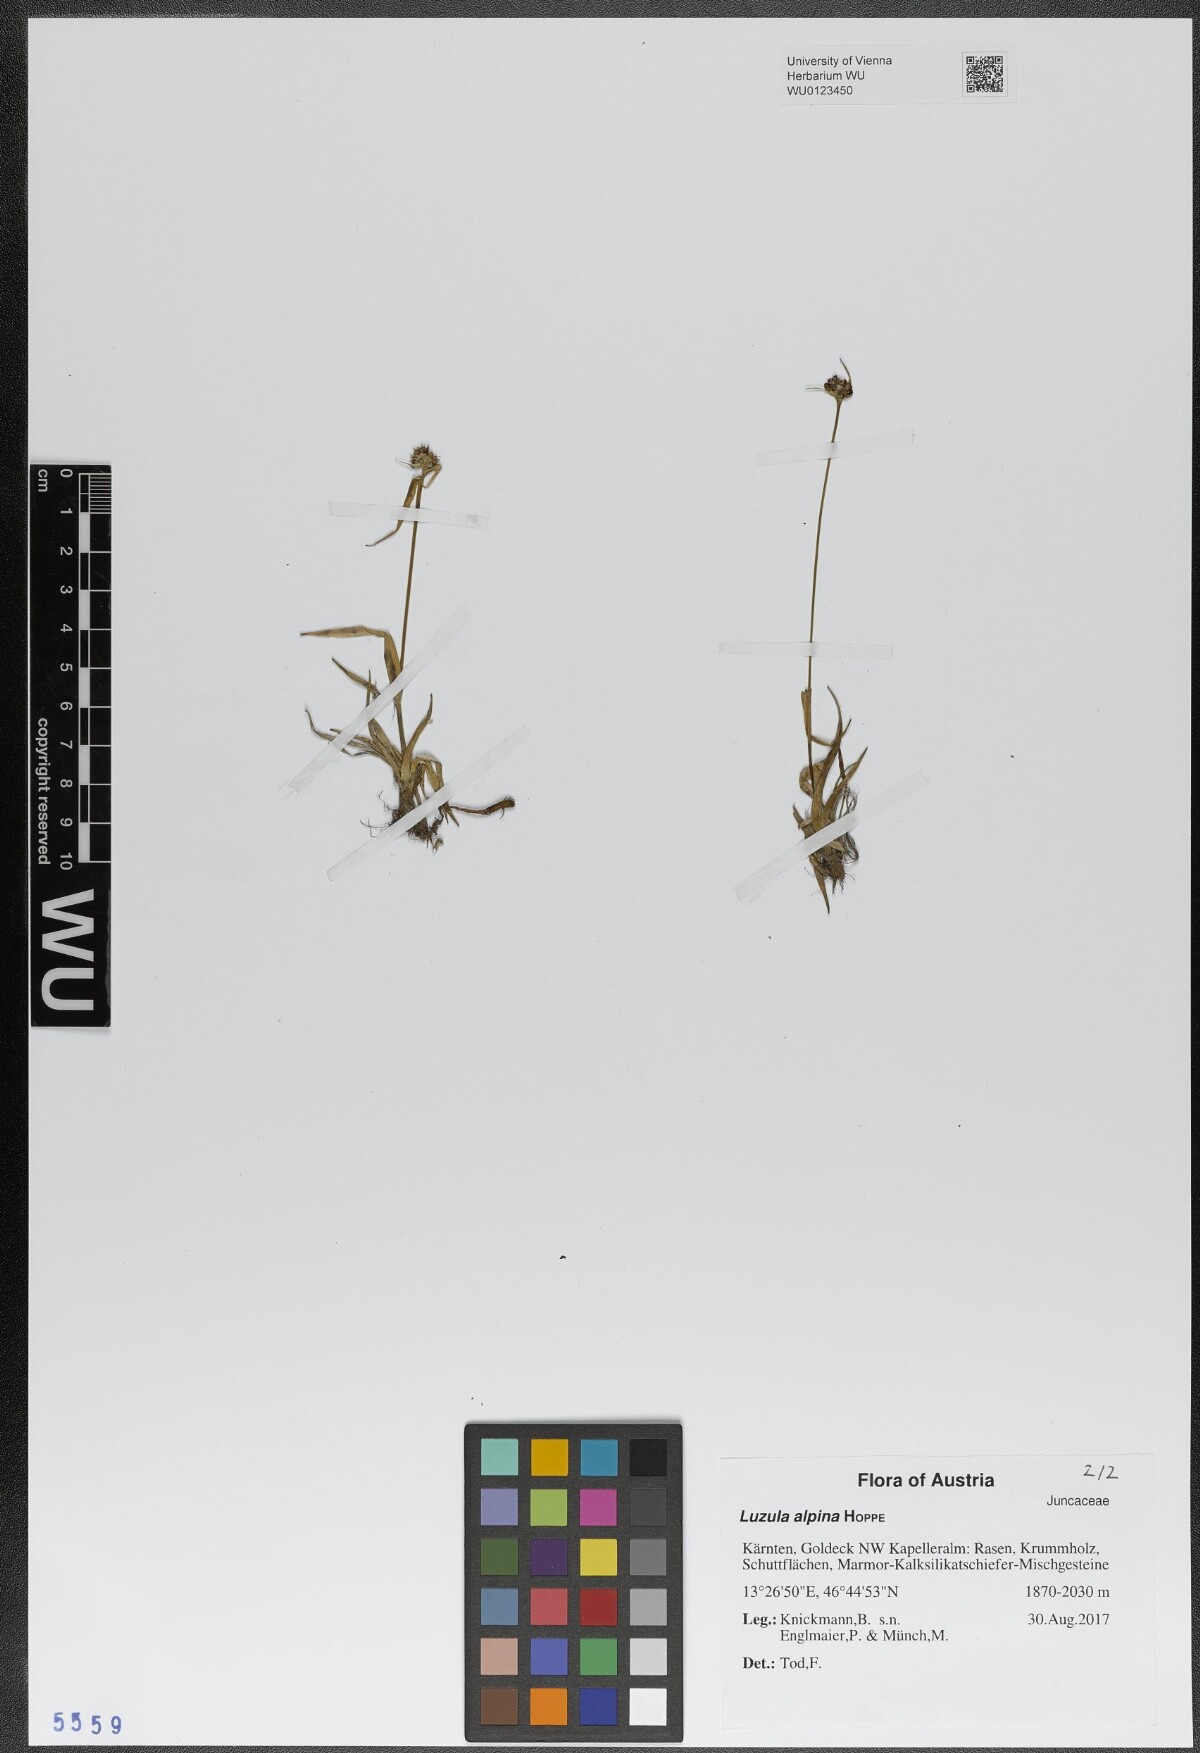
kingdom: Plantae
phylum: Tracheophyta
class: Liliopsida
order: Poales
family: Juncaceae
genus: Luzula
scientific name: Luzula alpina
